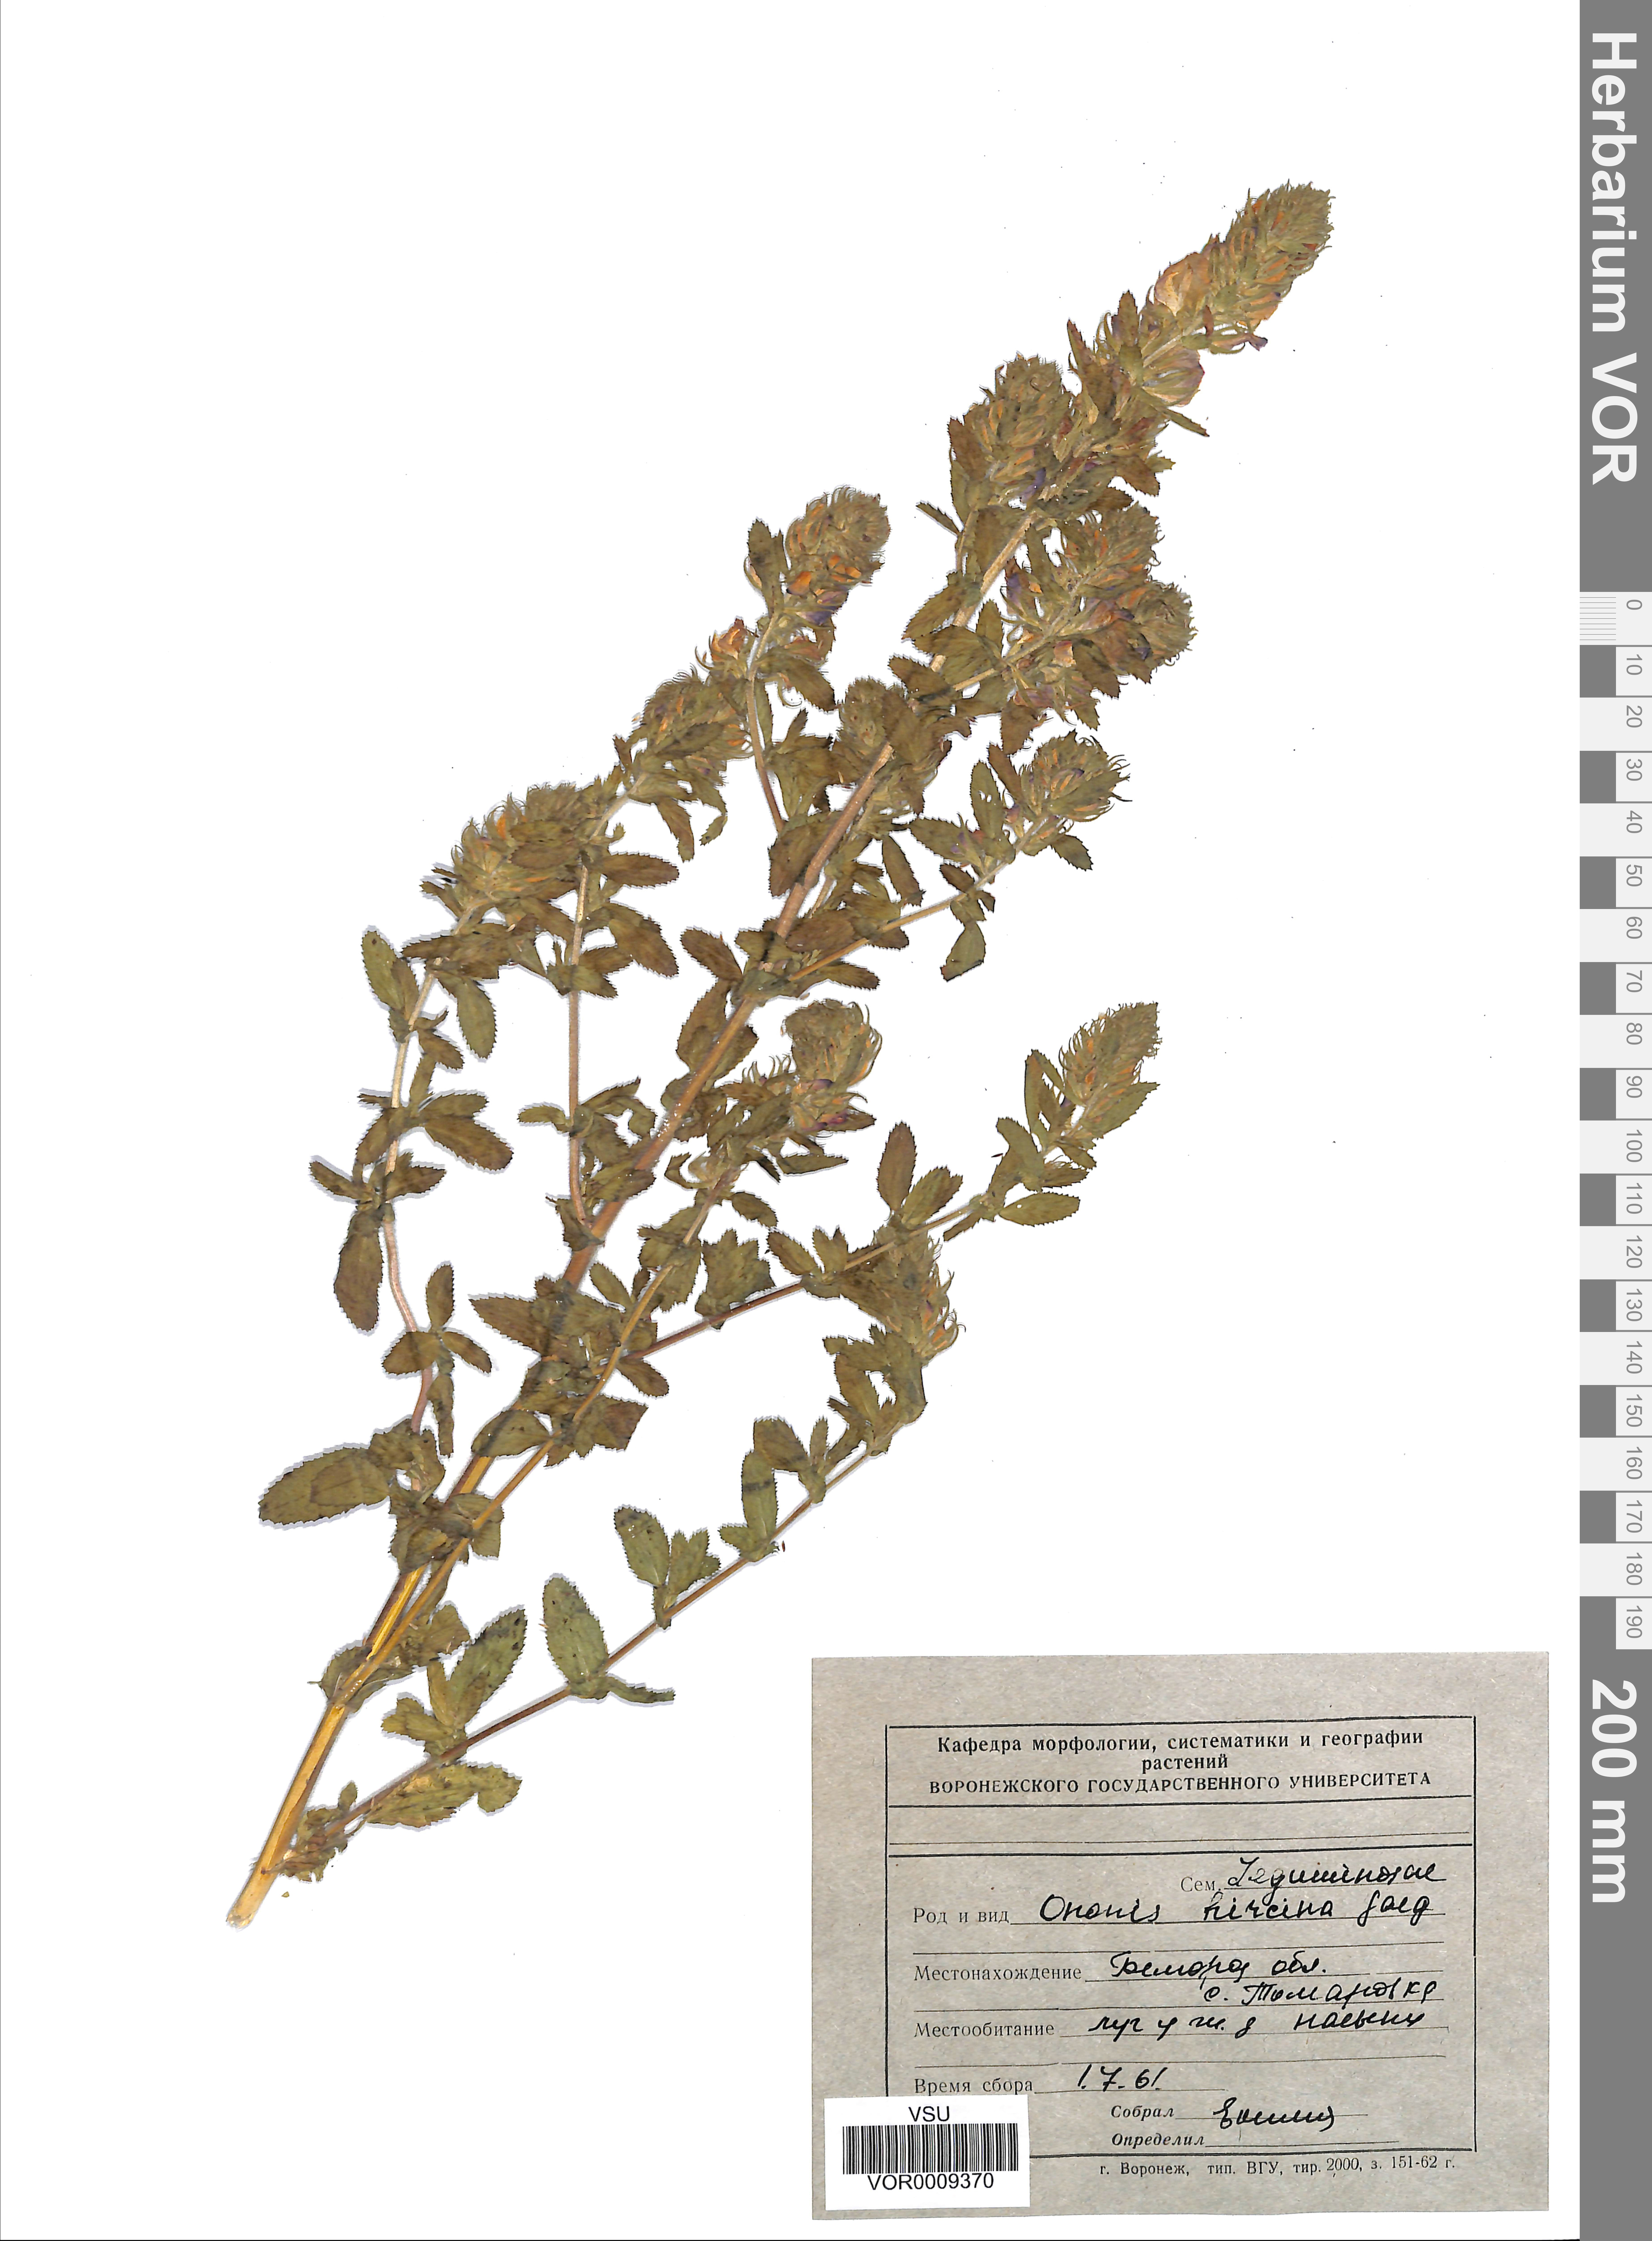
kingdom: Plantae
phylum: Tracheophyta
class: Magnoliopsida
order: Fabales
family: Fabaceae
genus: Ononis
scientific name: Ononis arvensis
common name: Field restharrow
